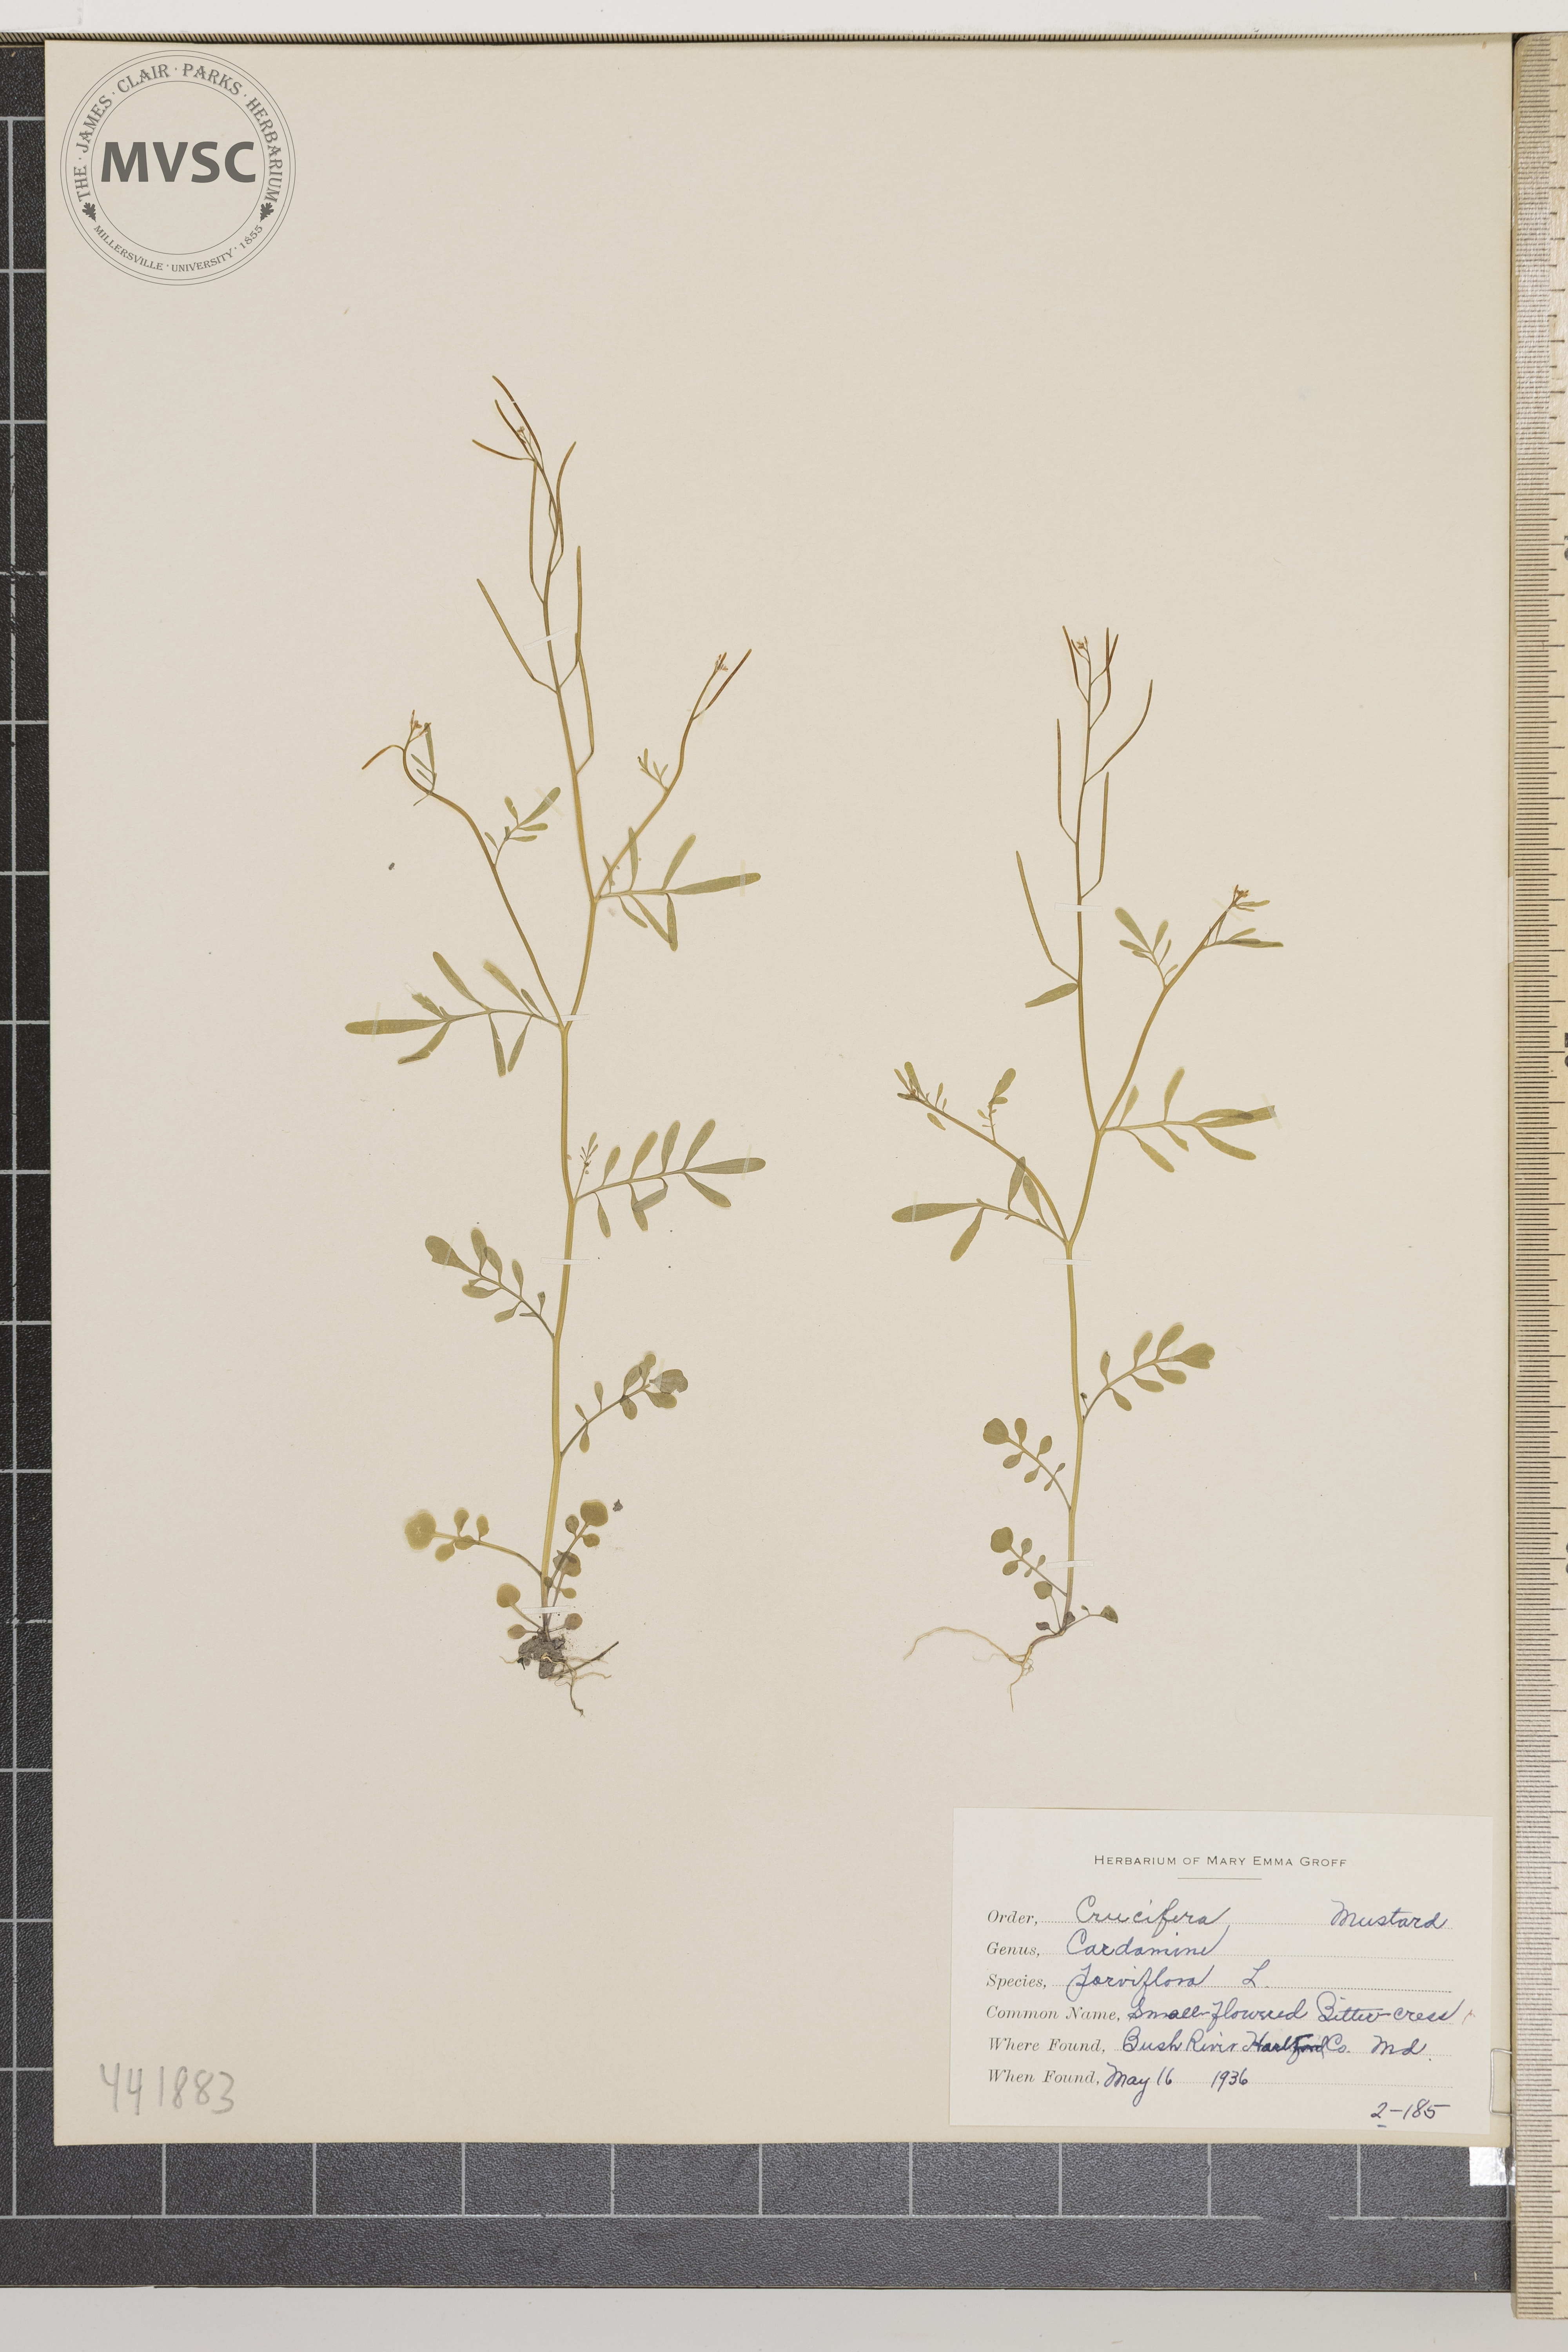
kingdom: Plantae
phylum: Tracheophyta
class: Magnoliopsida
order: Brassicales
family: Brassicaceae
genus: Cardamine
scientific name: Cardamine parviflora
